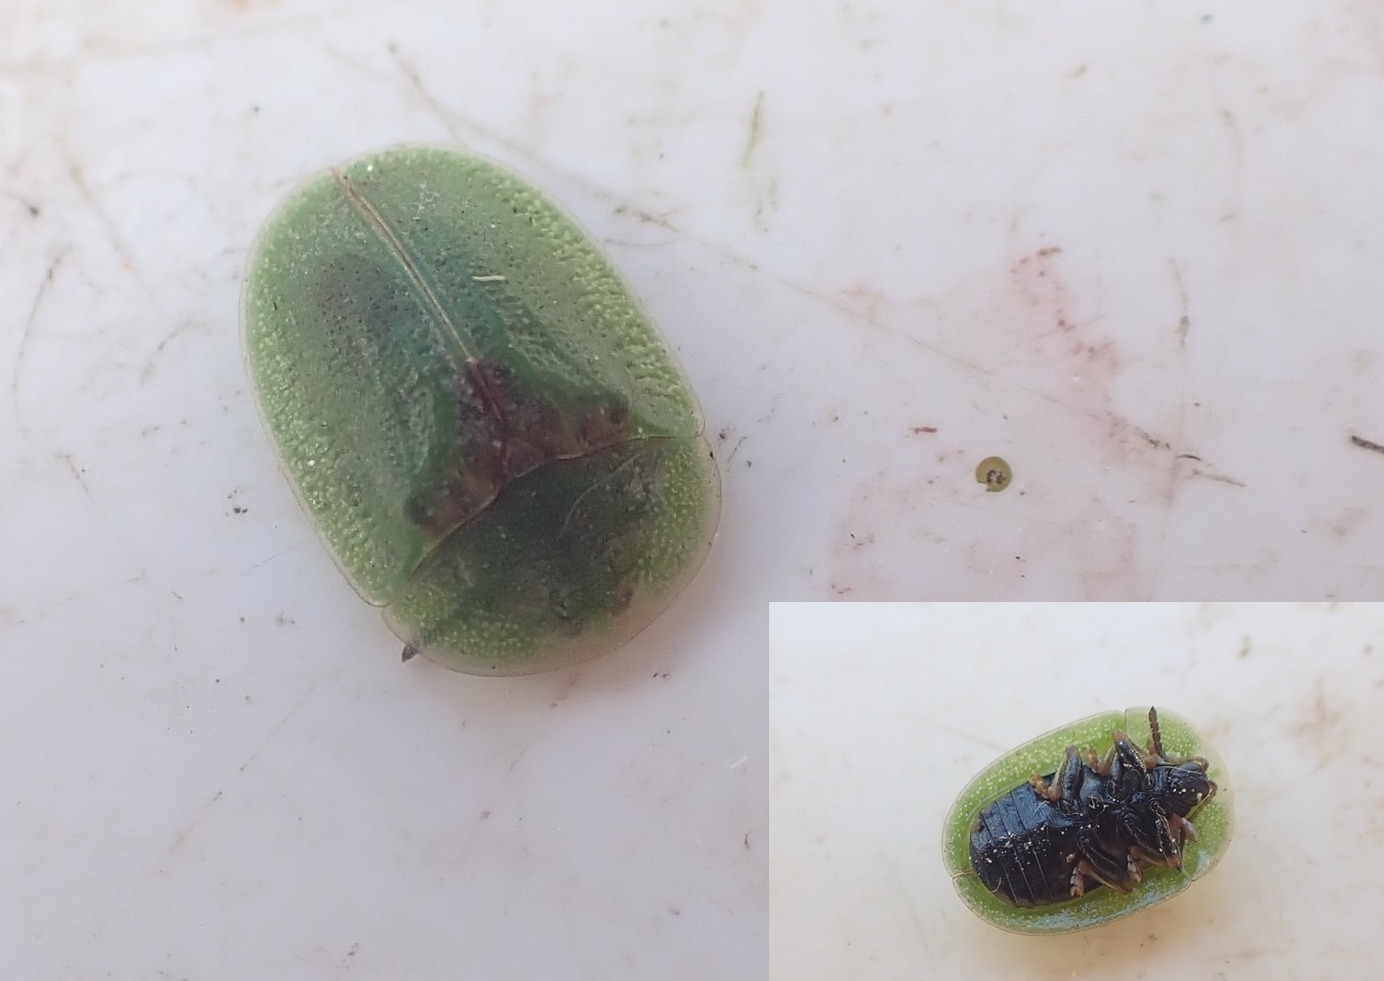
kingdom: Animalia
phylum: Arthropoda
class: Insecta
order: Coleoptera
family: Chrysomelidae
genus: Cassida
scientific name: Cassida rubiginosa
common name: Tidselskjoldbille
